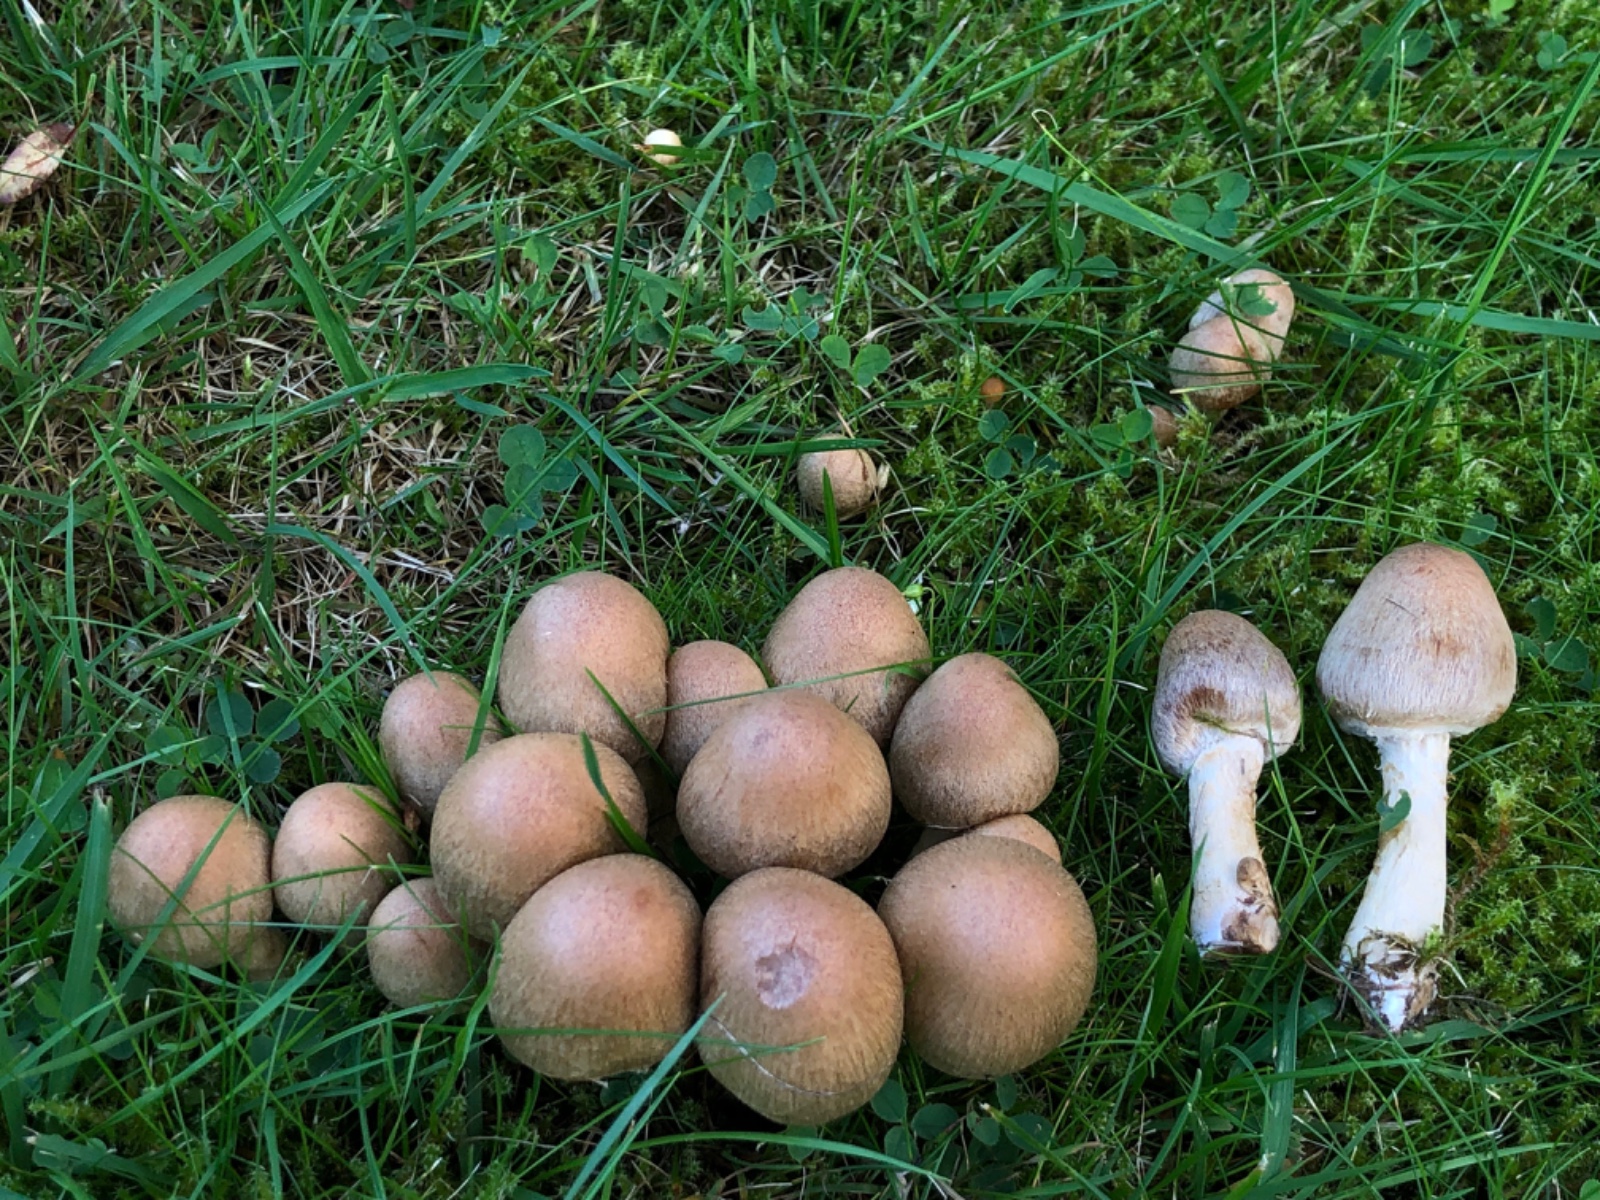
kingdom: Fungi
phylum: Basidiomycota
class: Agaricomycetes
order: Agaricales
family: Psathyrellaceae
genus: Lacrymaria
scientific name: Lacrymaria lacrymabunda
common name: grædende mørkhat
